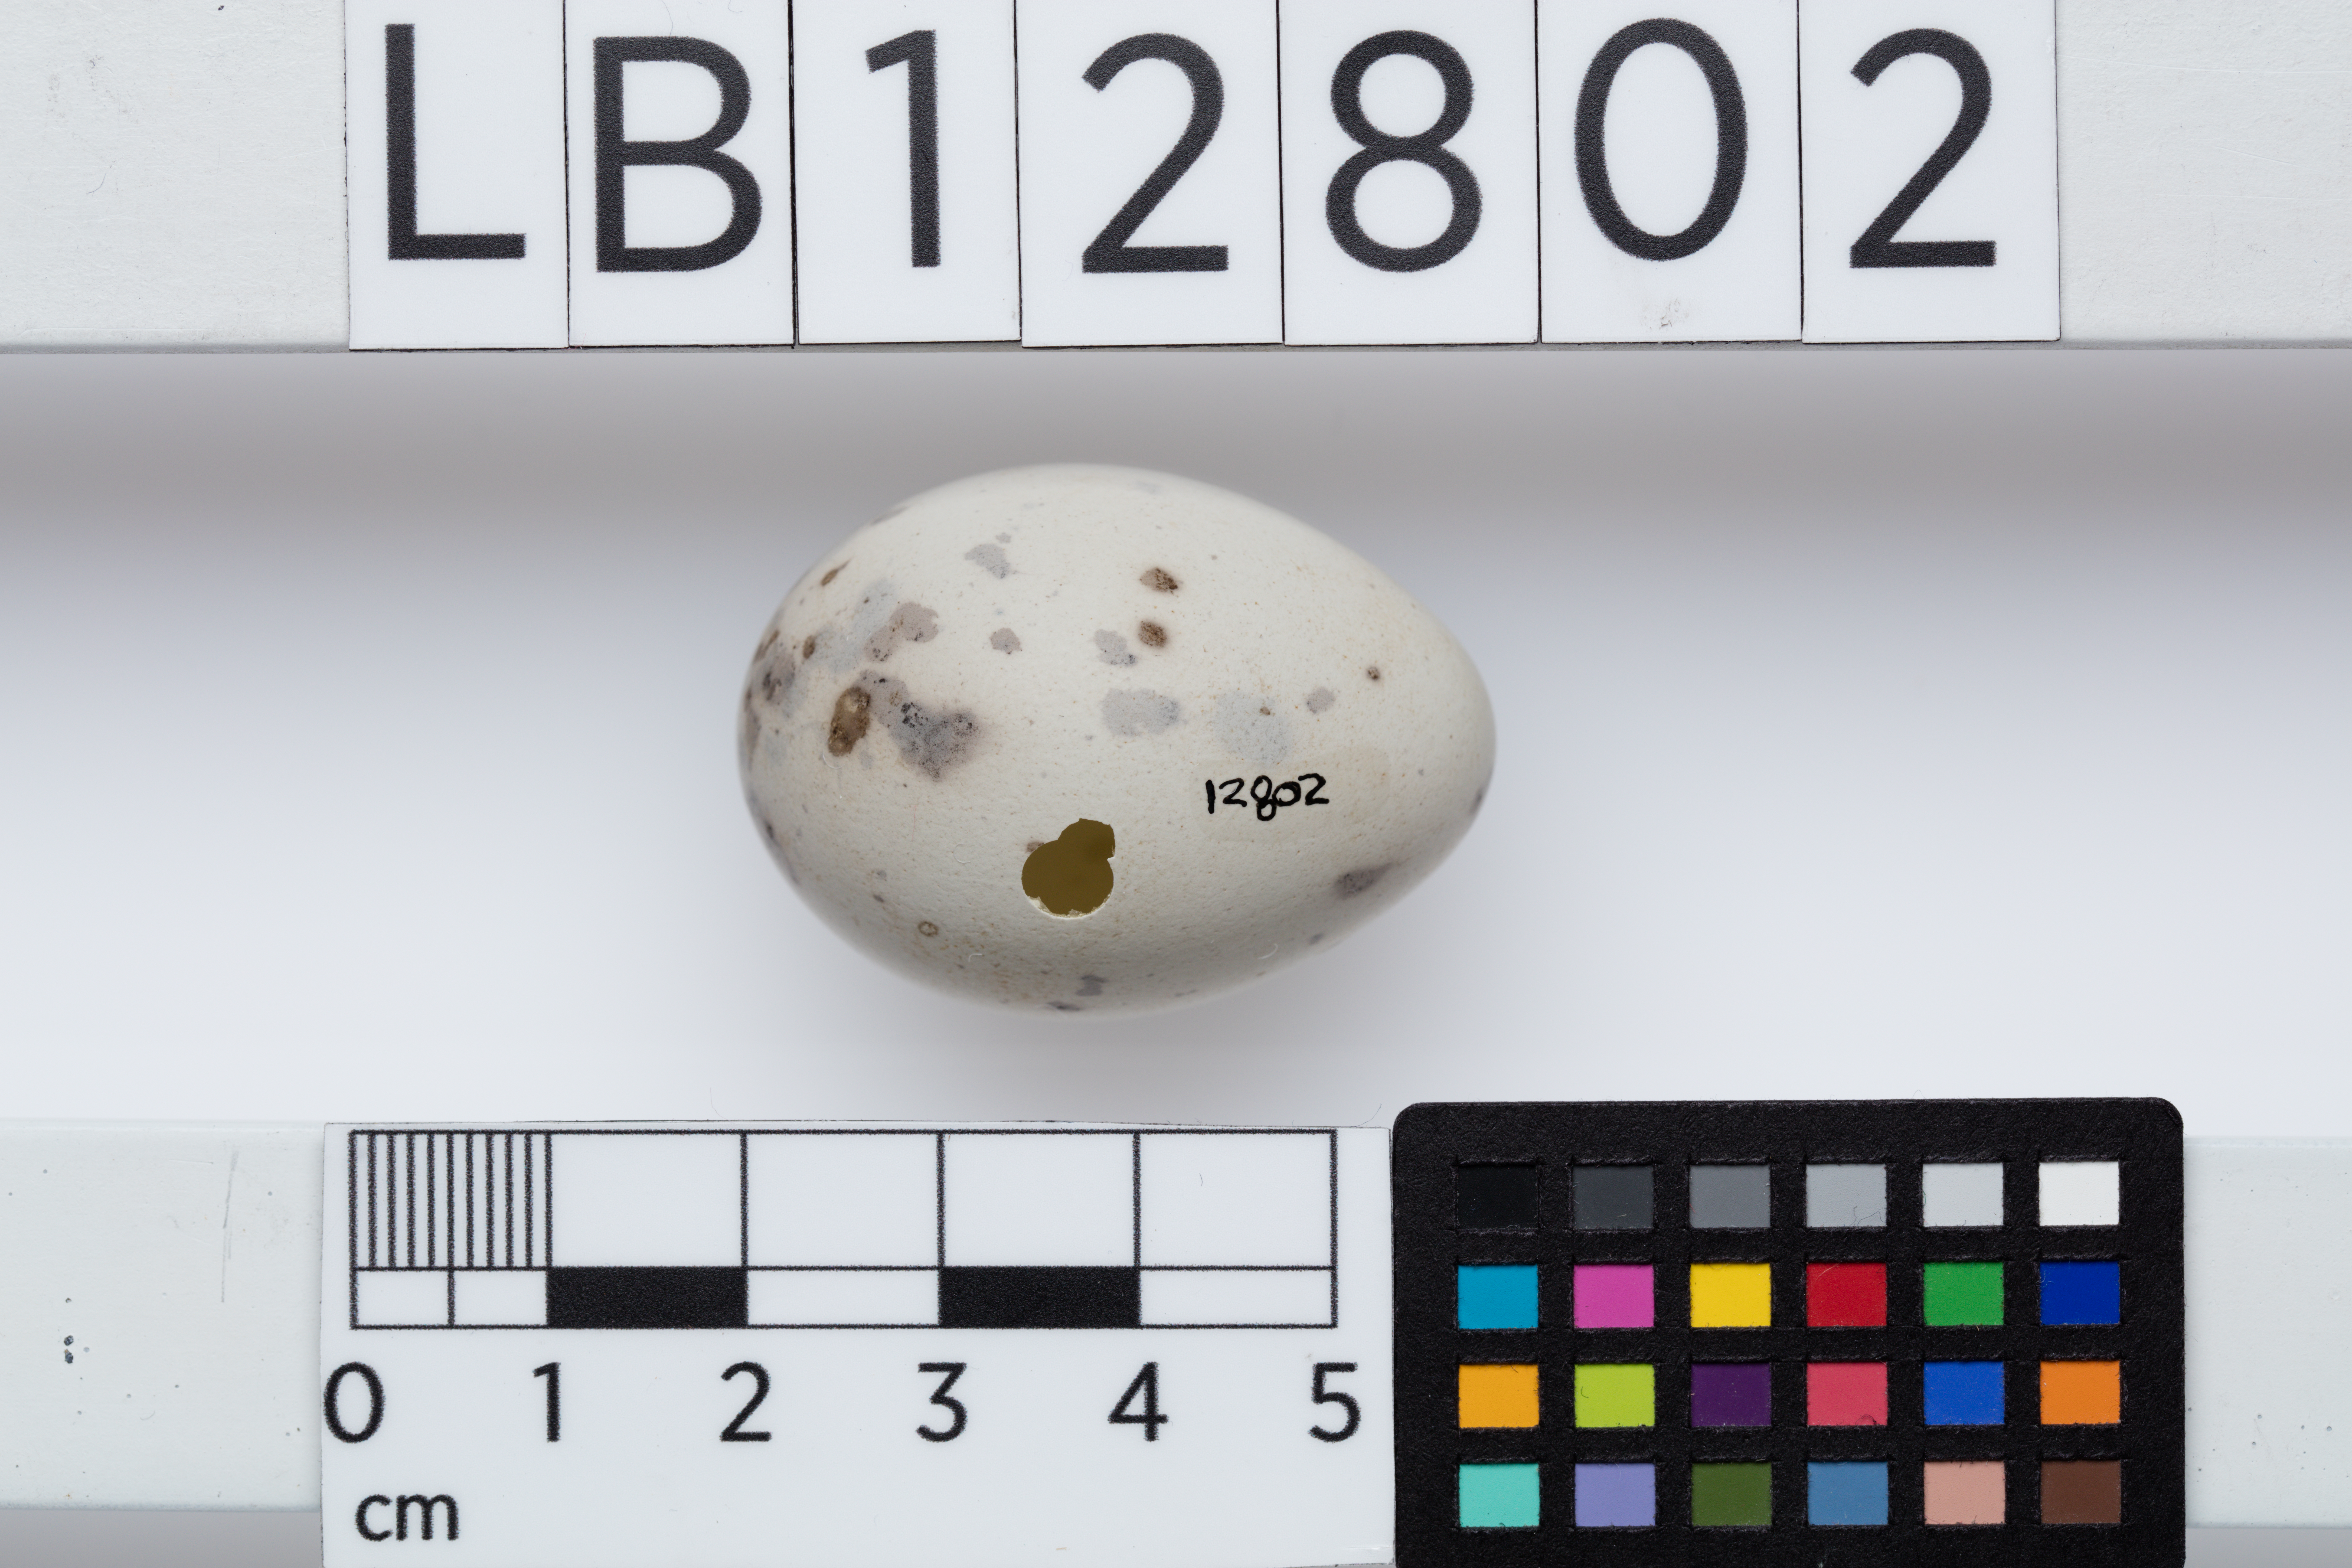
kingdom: Animalia
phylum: Chordata
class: Aves
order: Passeriformes
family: Callaeatidae
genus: Callaeas
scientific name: Callaeas cinereus
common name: South island kokako
